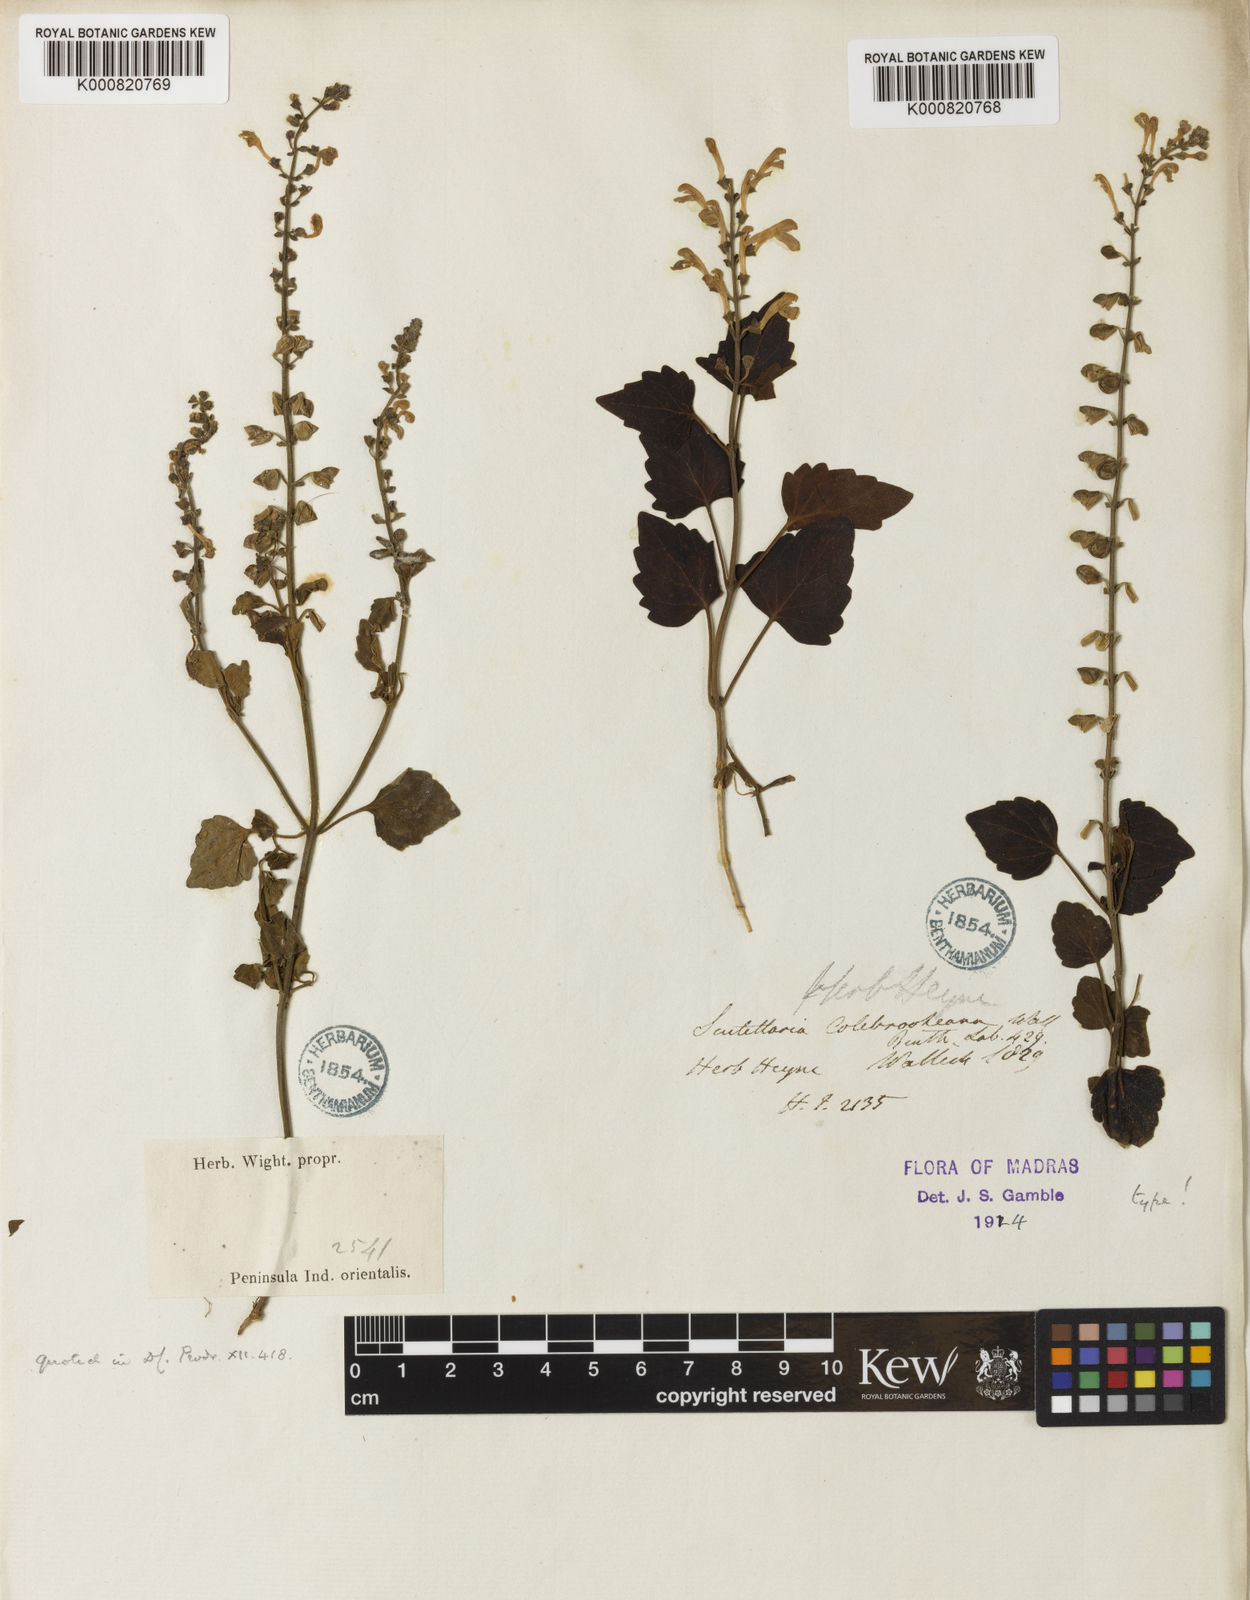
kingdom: Plantae
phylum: Tracheophyta
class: Magnoliopsida
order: Lamiales
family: Lamiaceae
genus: Scutellaria
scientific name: Scutellaria colebrookeana
